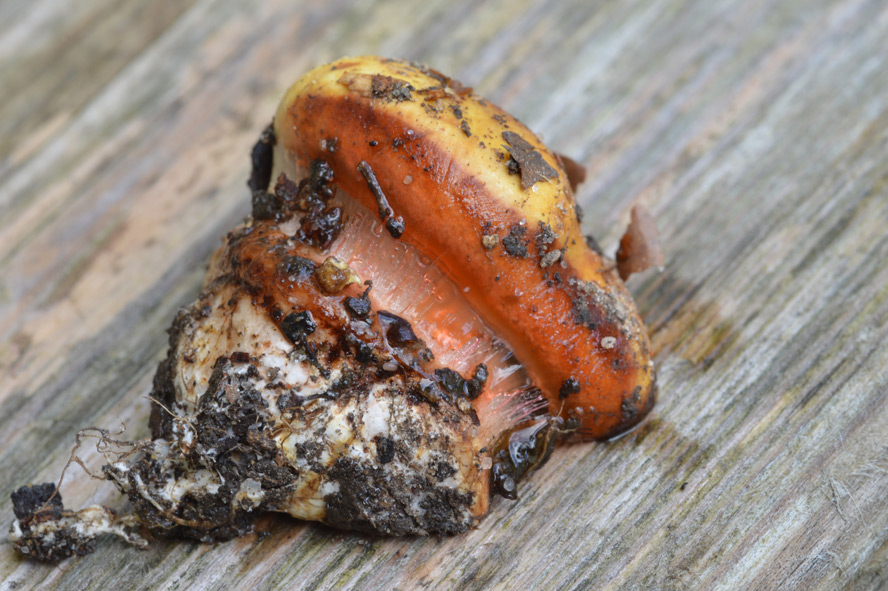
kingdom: Fungi
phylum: Basidiomycota
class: Agaricomycetes
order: Agaricales
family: Cortinariaceae
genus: Calonarius
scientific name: Calonarius cisticola
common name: cistus-slørhat
